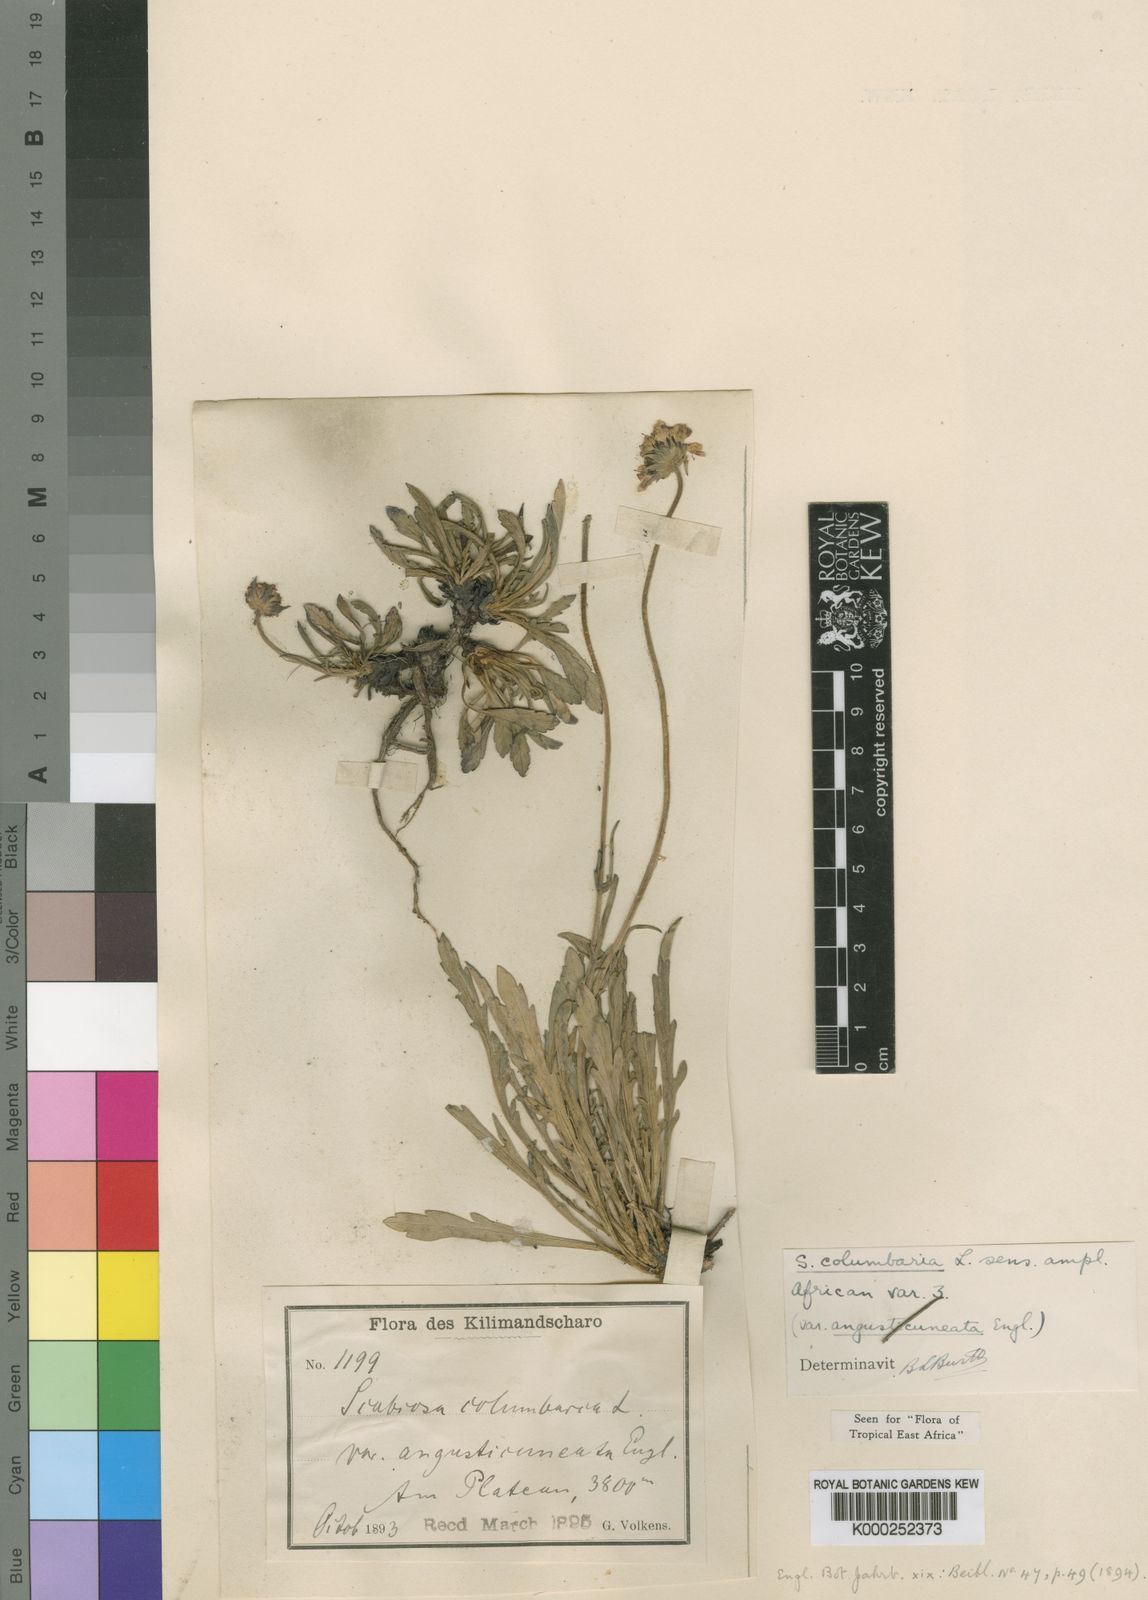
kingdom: Plantae
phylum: Tracheophyta
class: Magnoliopsida
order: Dipsacales
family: Caprifoliaceae
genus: Scabiosa
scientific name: Scabiosa columbaria
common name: Small scabious
